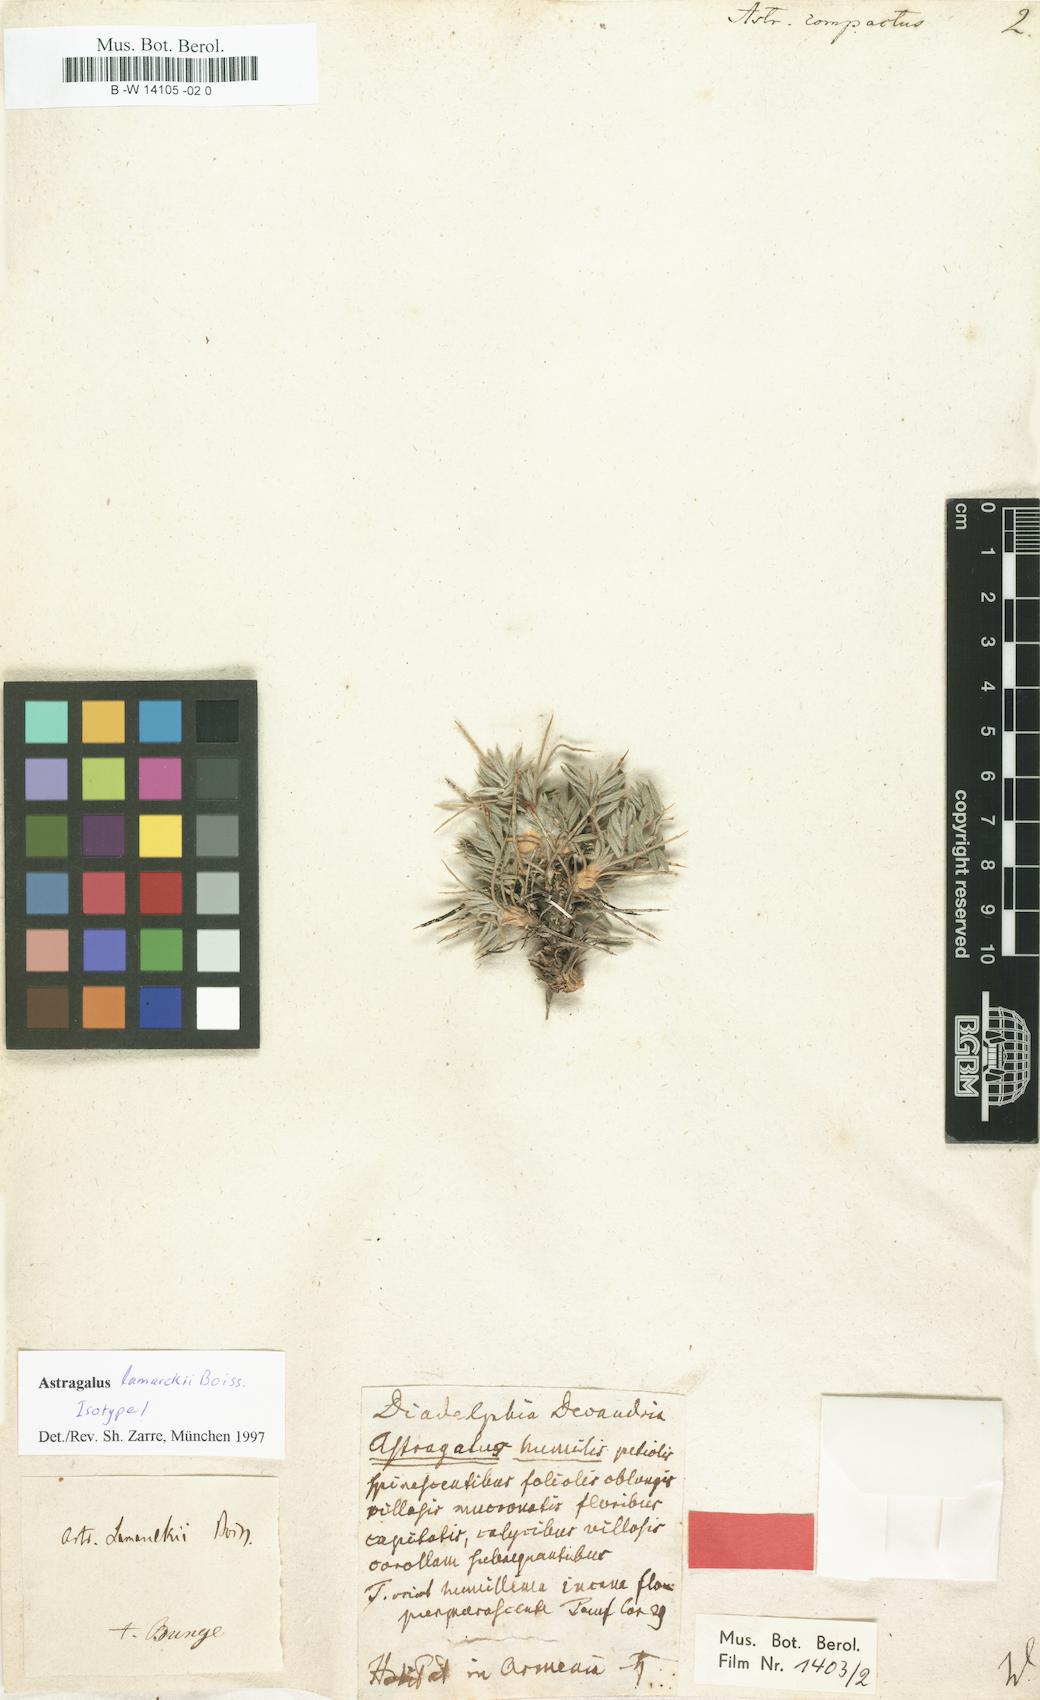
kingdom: Plantae
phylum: Tracheophyta
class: Magnoliopsida
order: Fabales
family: Fabaceae
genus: Astragalus
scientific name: Astragalus compactus
